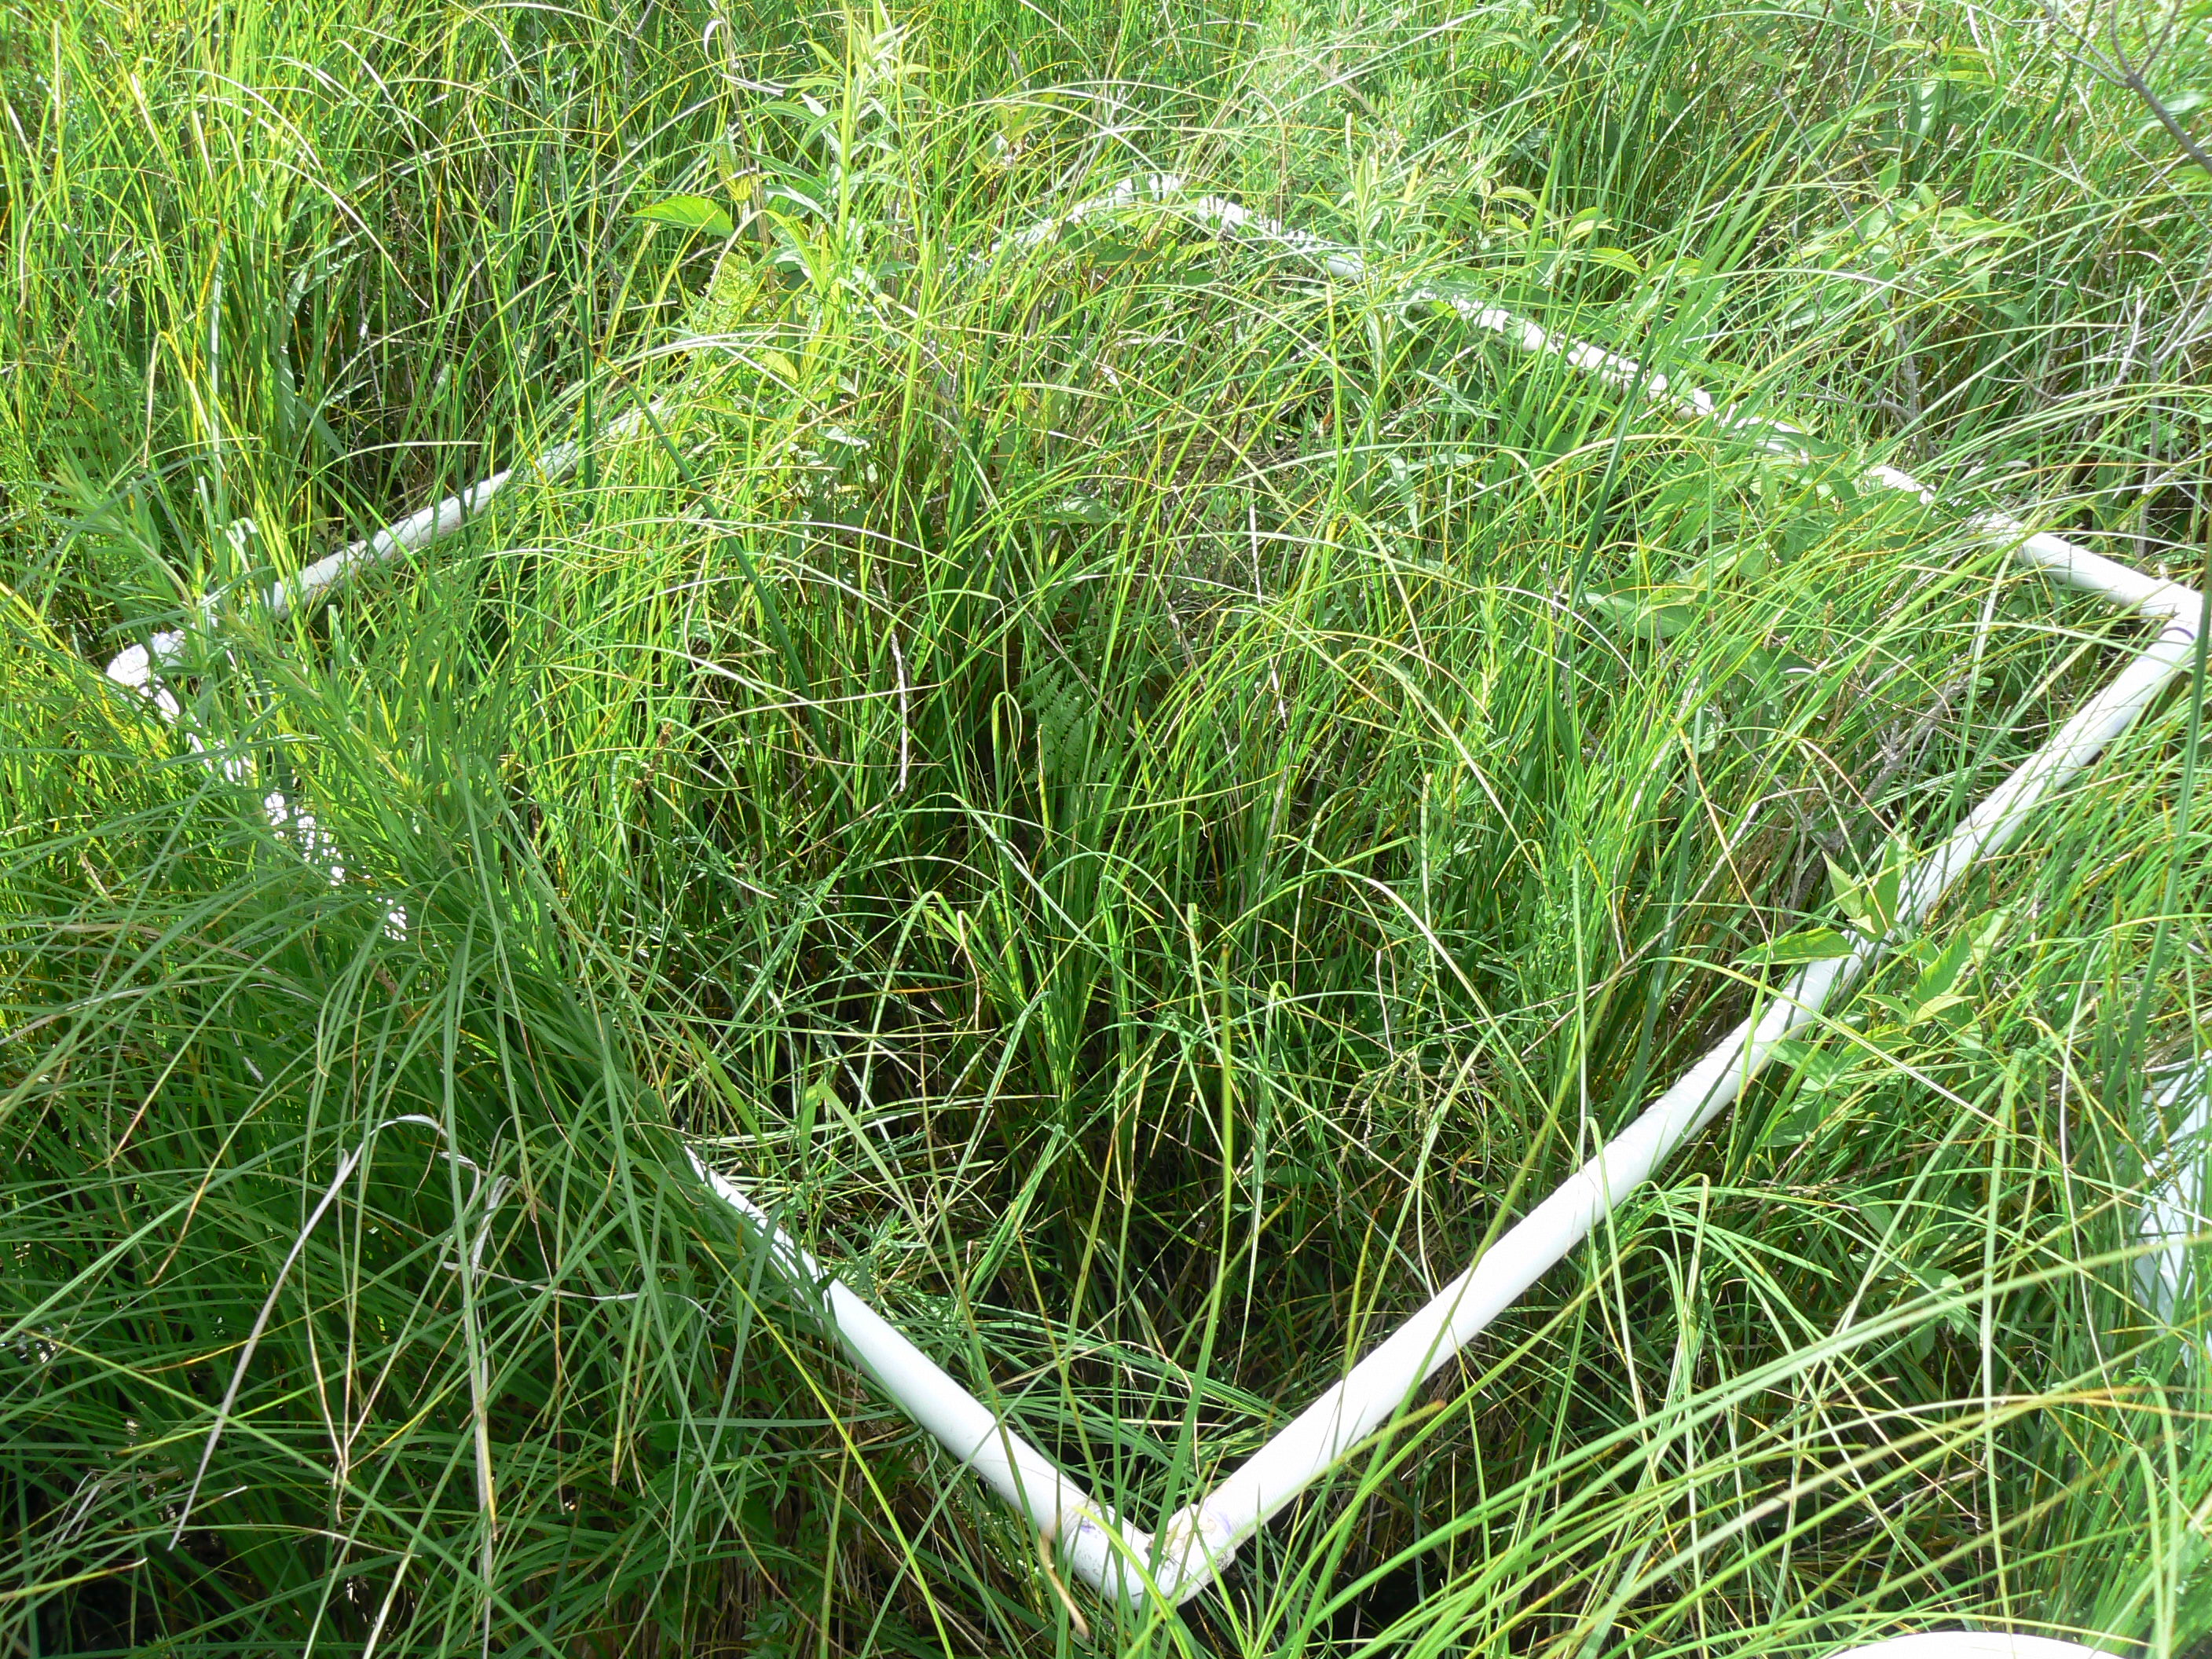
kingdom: Plantae
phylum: Tracheophyta
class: Magnoliopsida
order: Rosales
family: Rosaceae
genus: Dasiphora
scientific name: Dasiphora fruticosa
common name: Shrubby cinquefoil
